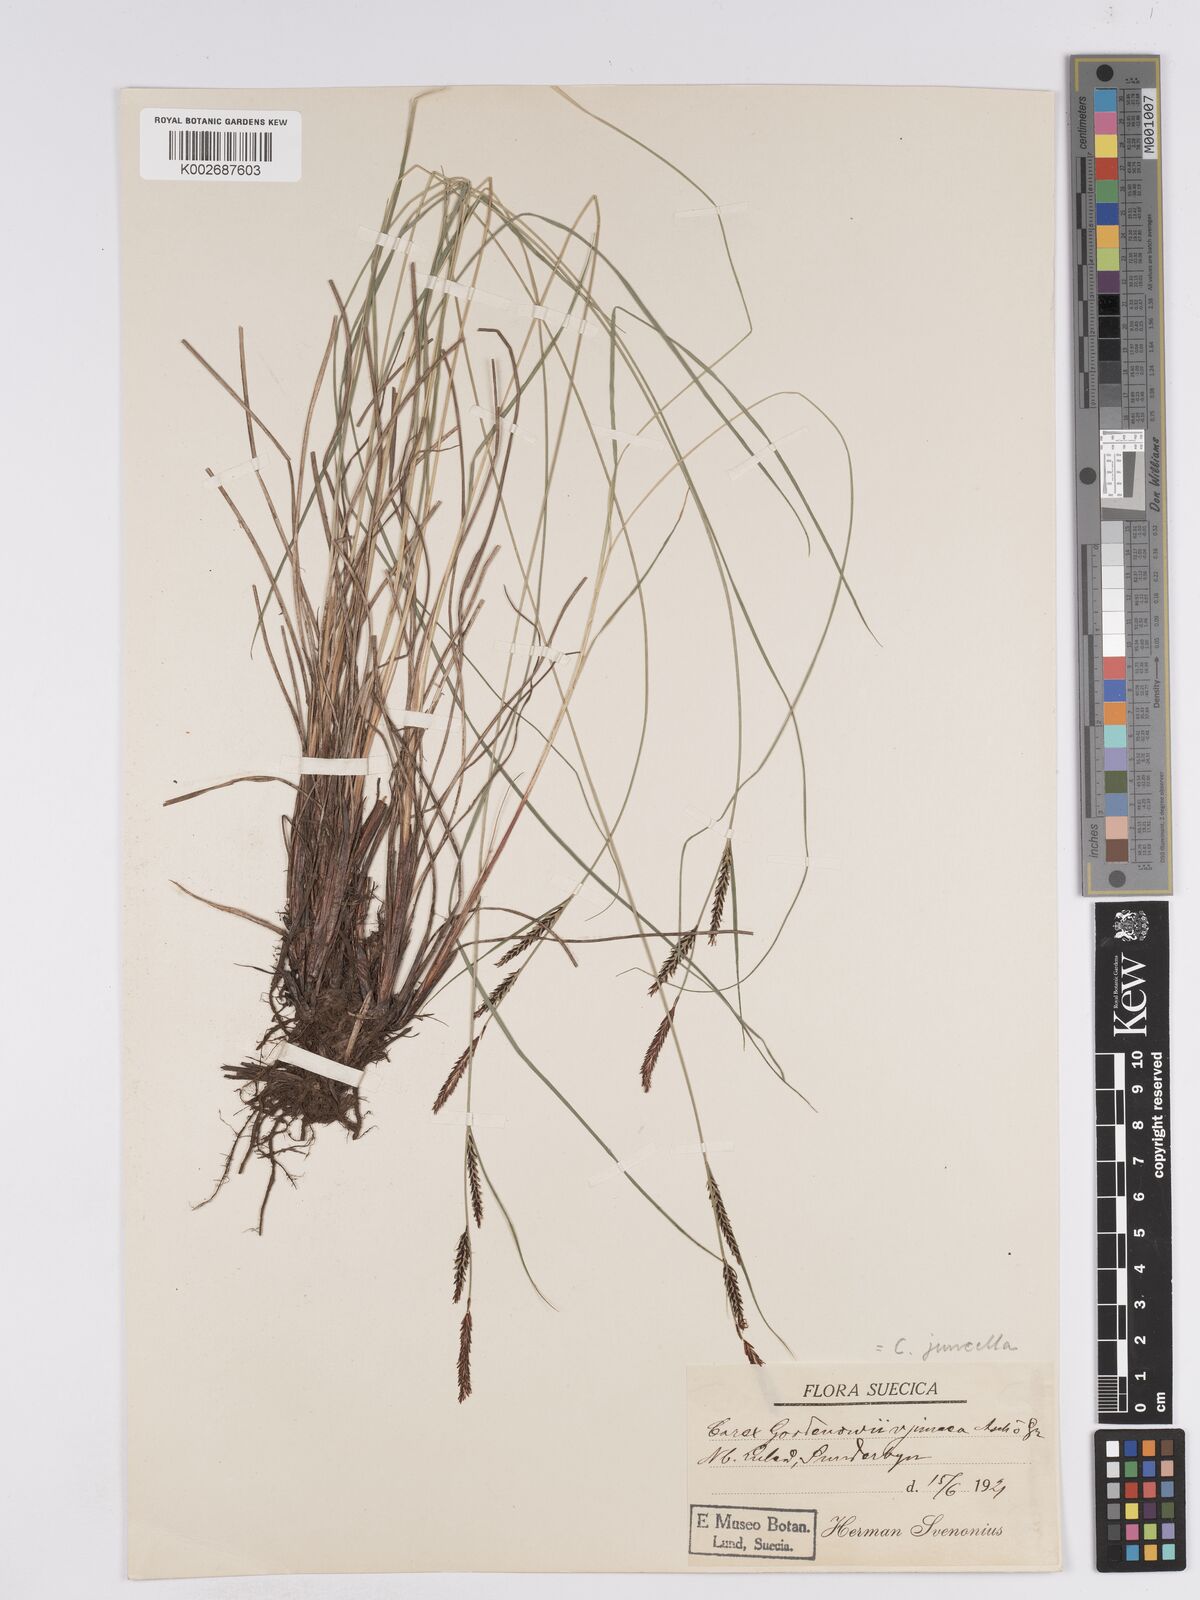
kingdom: Plantae
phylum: Tracheophyta
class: Liliopsida
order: Poales
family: Cyperaceae
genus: Carex
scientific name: Carex
